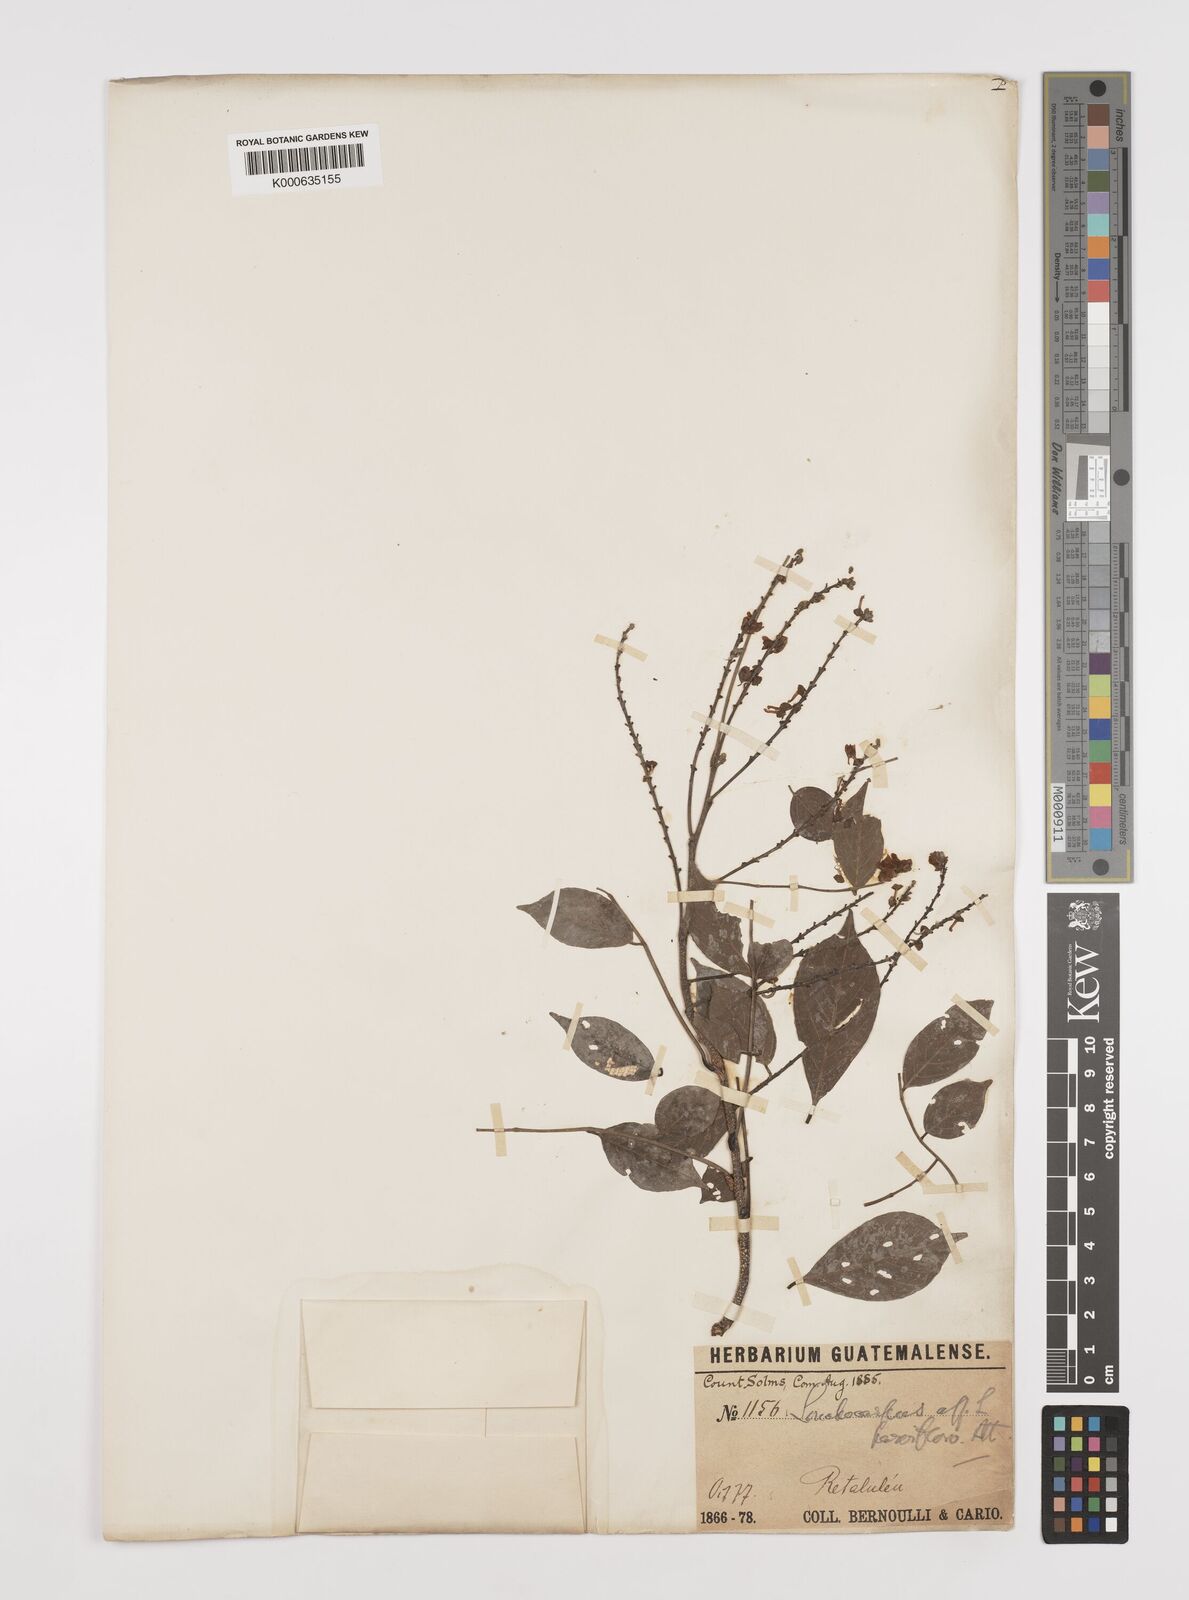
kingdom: Plantae
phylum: Tracheophyta
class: Magnoliopsida
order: Fabales
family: Fabaceae
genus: Lonchocarpus
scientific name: Lonchocarpus parviflorus
